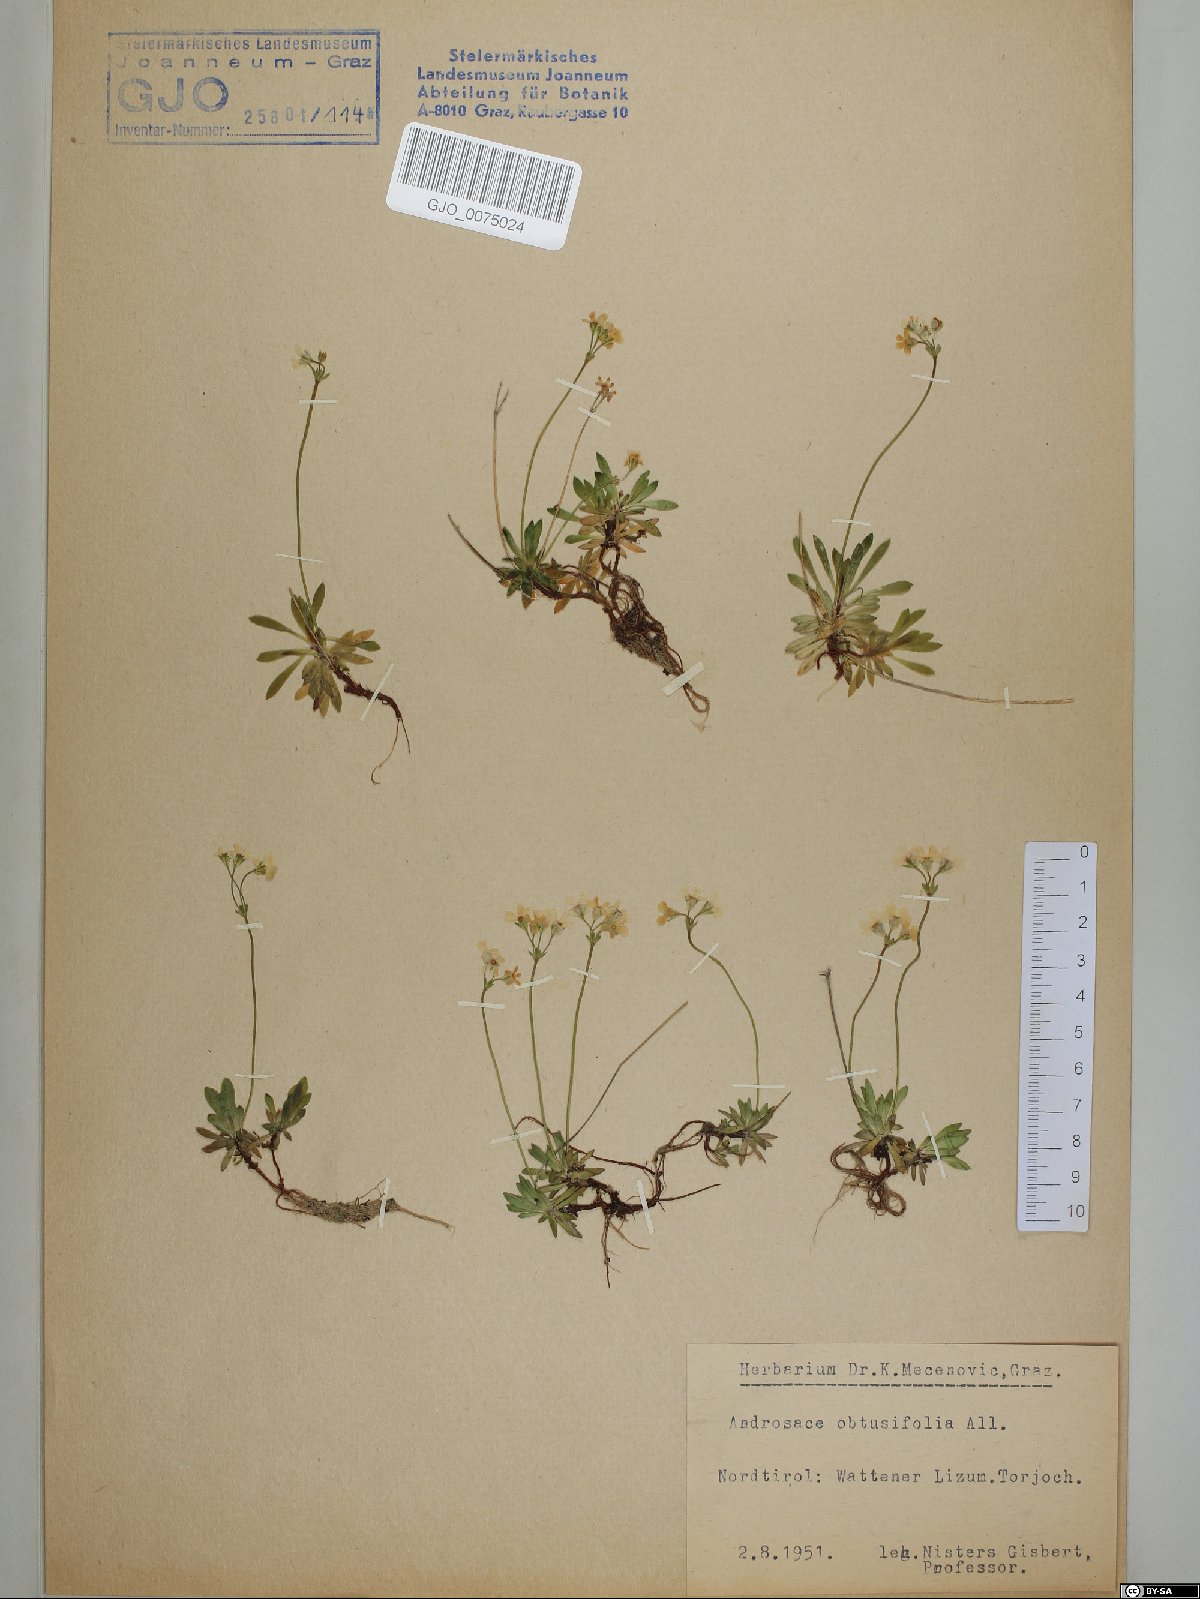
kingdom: Plantae
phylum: Tracheophyta
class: Magnoliopsida
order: Ericales
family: Primulaceae
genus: Androsace
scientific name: Androsace obtusifolia
